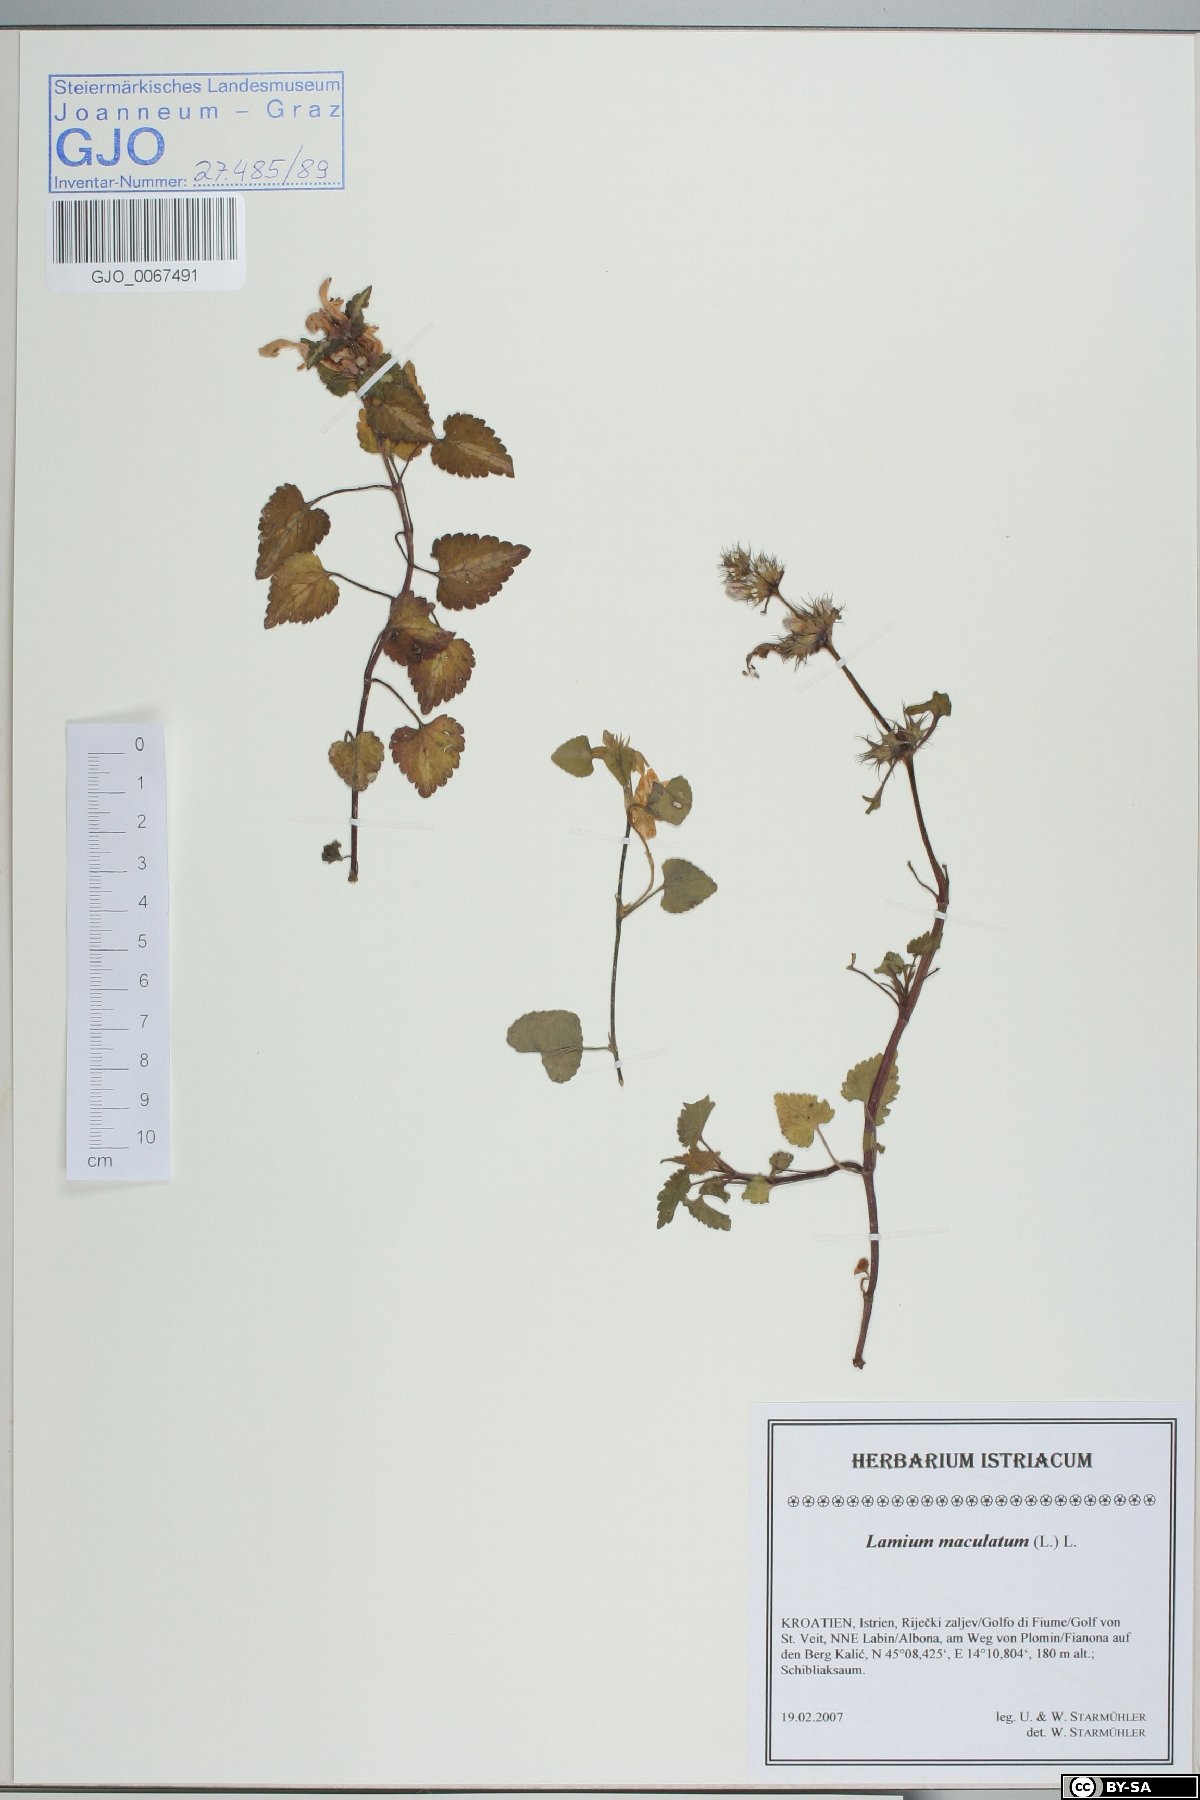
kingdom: Plantae
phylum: Tracheophyta
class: Magnoliopsida
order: Lamiales
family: Lamiaceae
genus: Lamium
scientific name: Lamium maculatum
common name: Spotted dead-nettle
